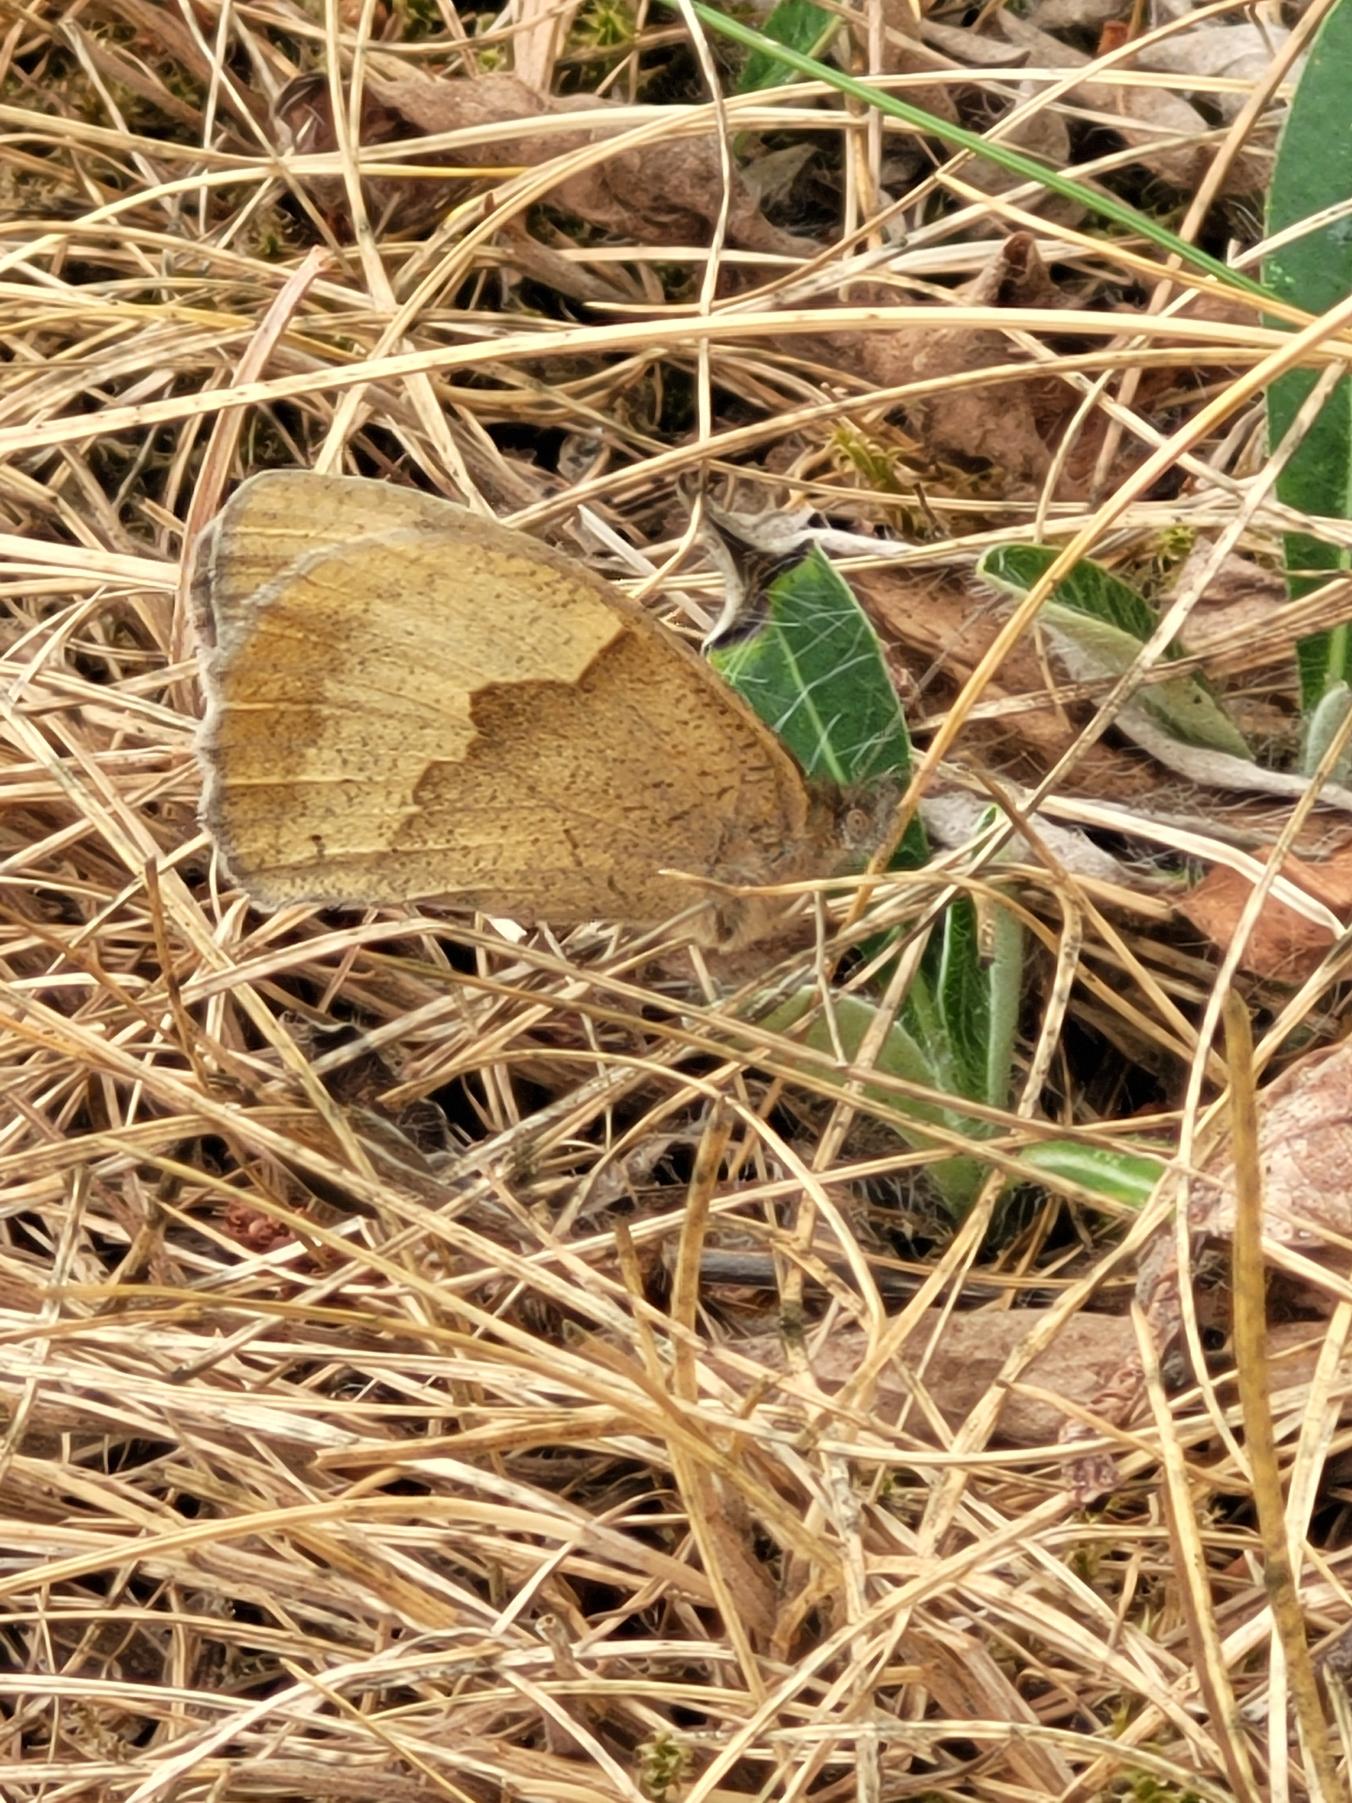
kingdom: Animalia
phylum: Arthropoda
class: Insecta
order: Lepidoptera
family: Nymphalidae
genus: Maniola
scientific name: Maniola jurtina
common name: Græsrandøje
